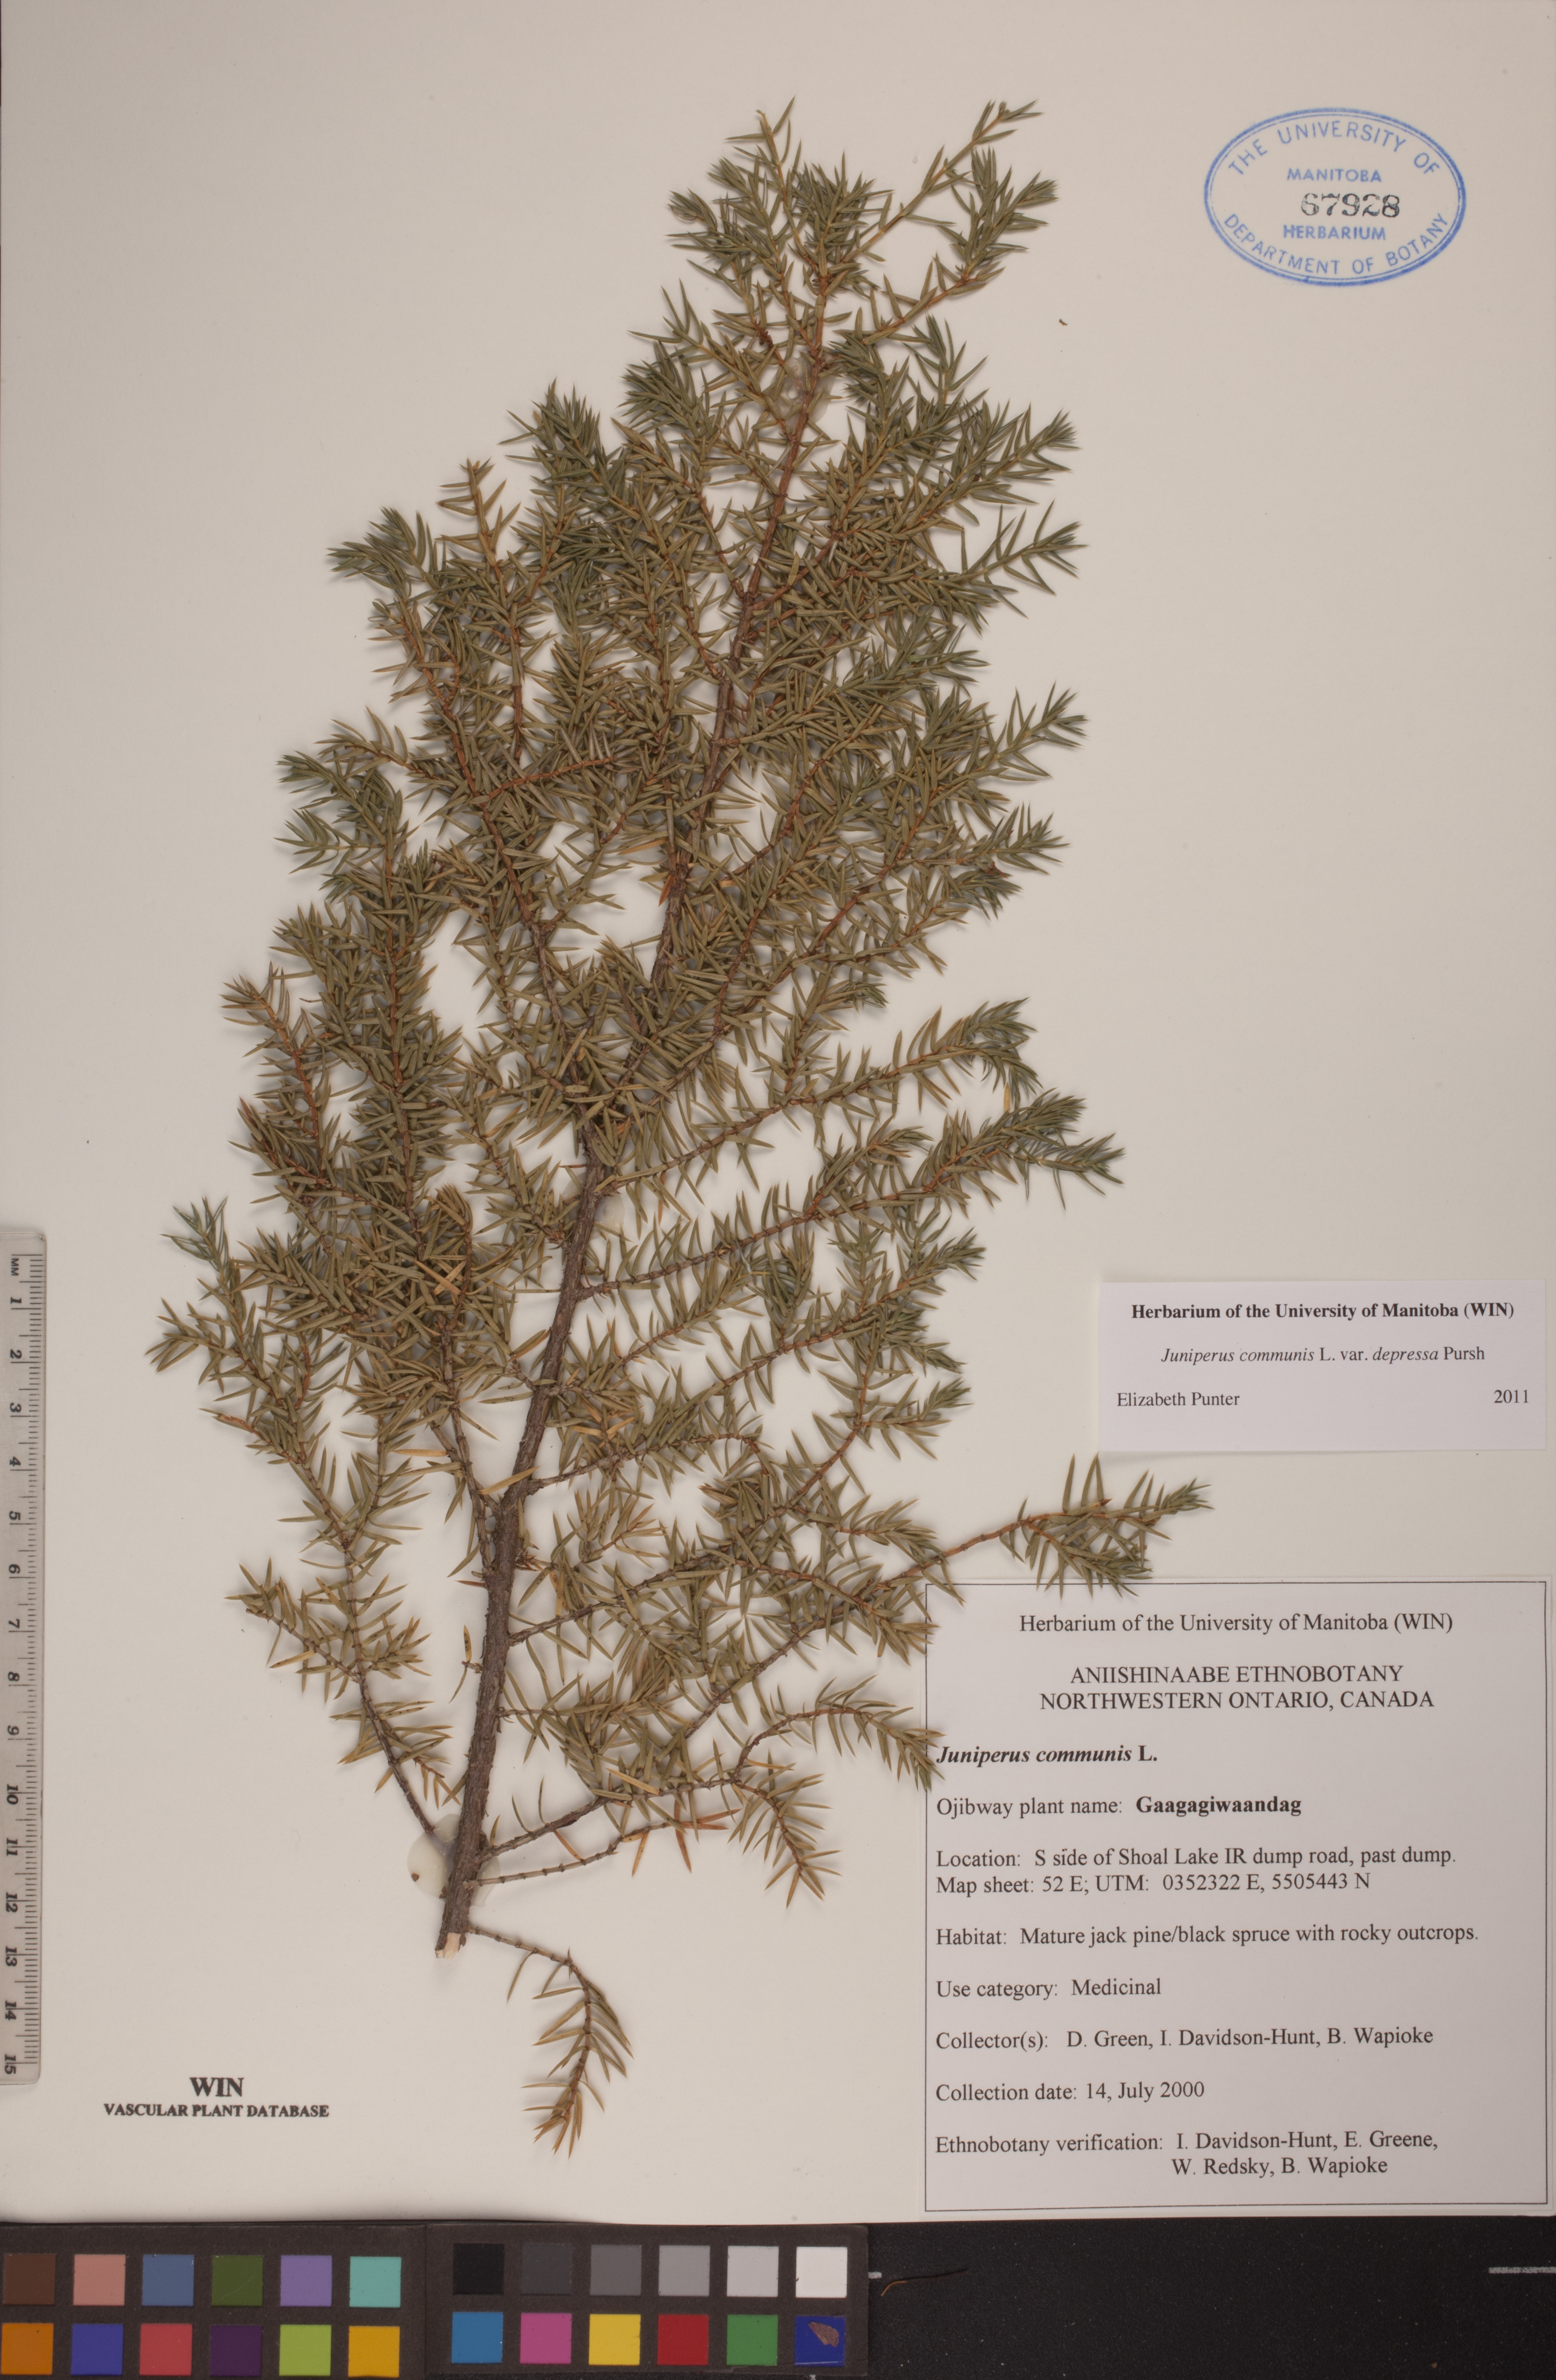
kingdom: Plantae
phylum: Tracheophyta
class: Pinopsida
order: Pinales
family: Cupressaceae
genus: Juniperus
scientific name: Juniperus communis
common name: Common juniper
